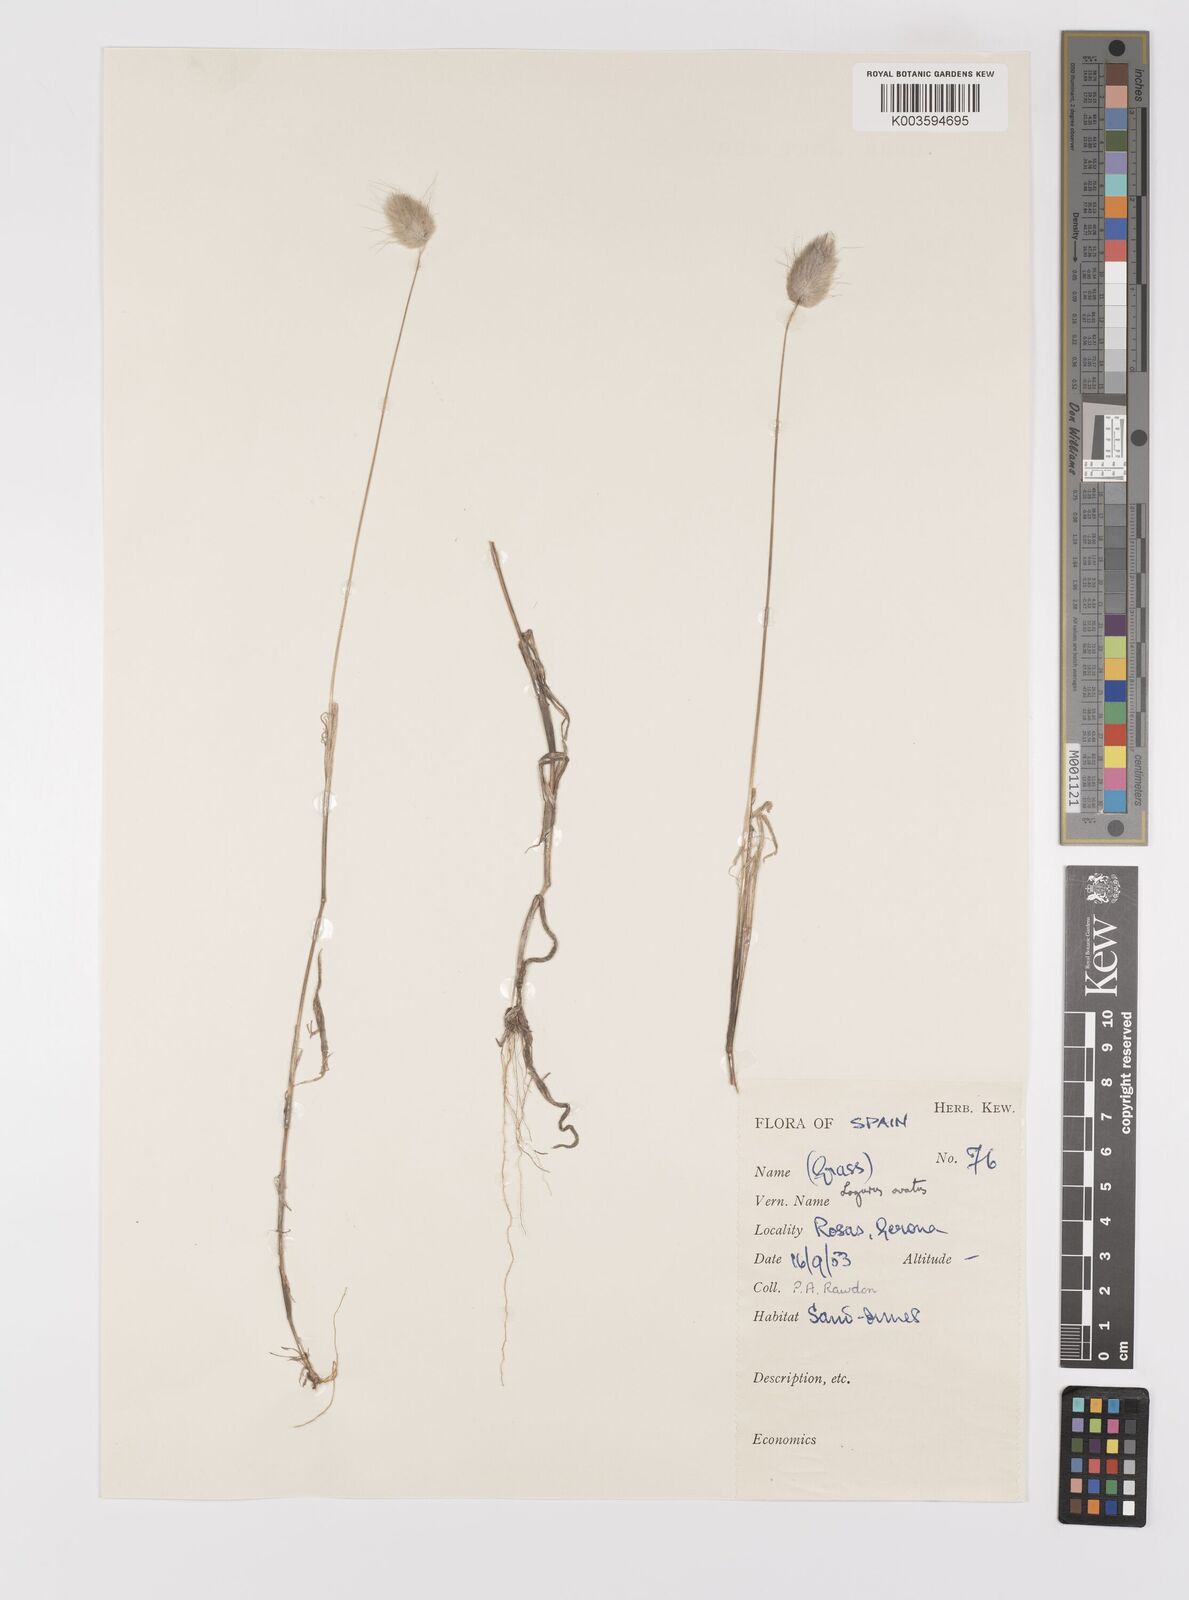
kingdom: Plantae
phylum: Tracheophyta
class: Liliopsida
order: Poales
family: Poaceae
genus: Lagurus
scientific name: Lagurus ovatus
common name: Hare's-tail
